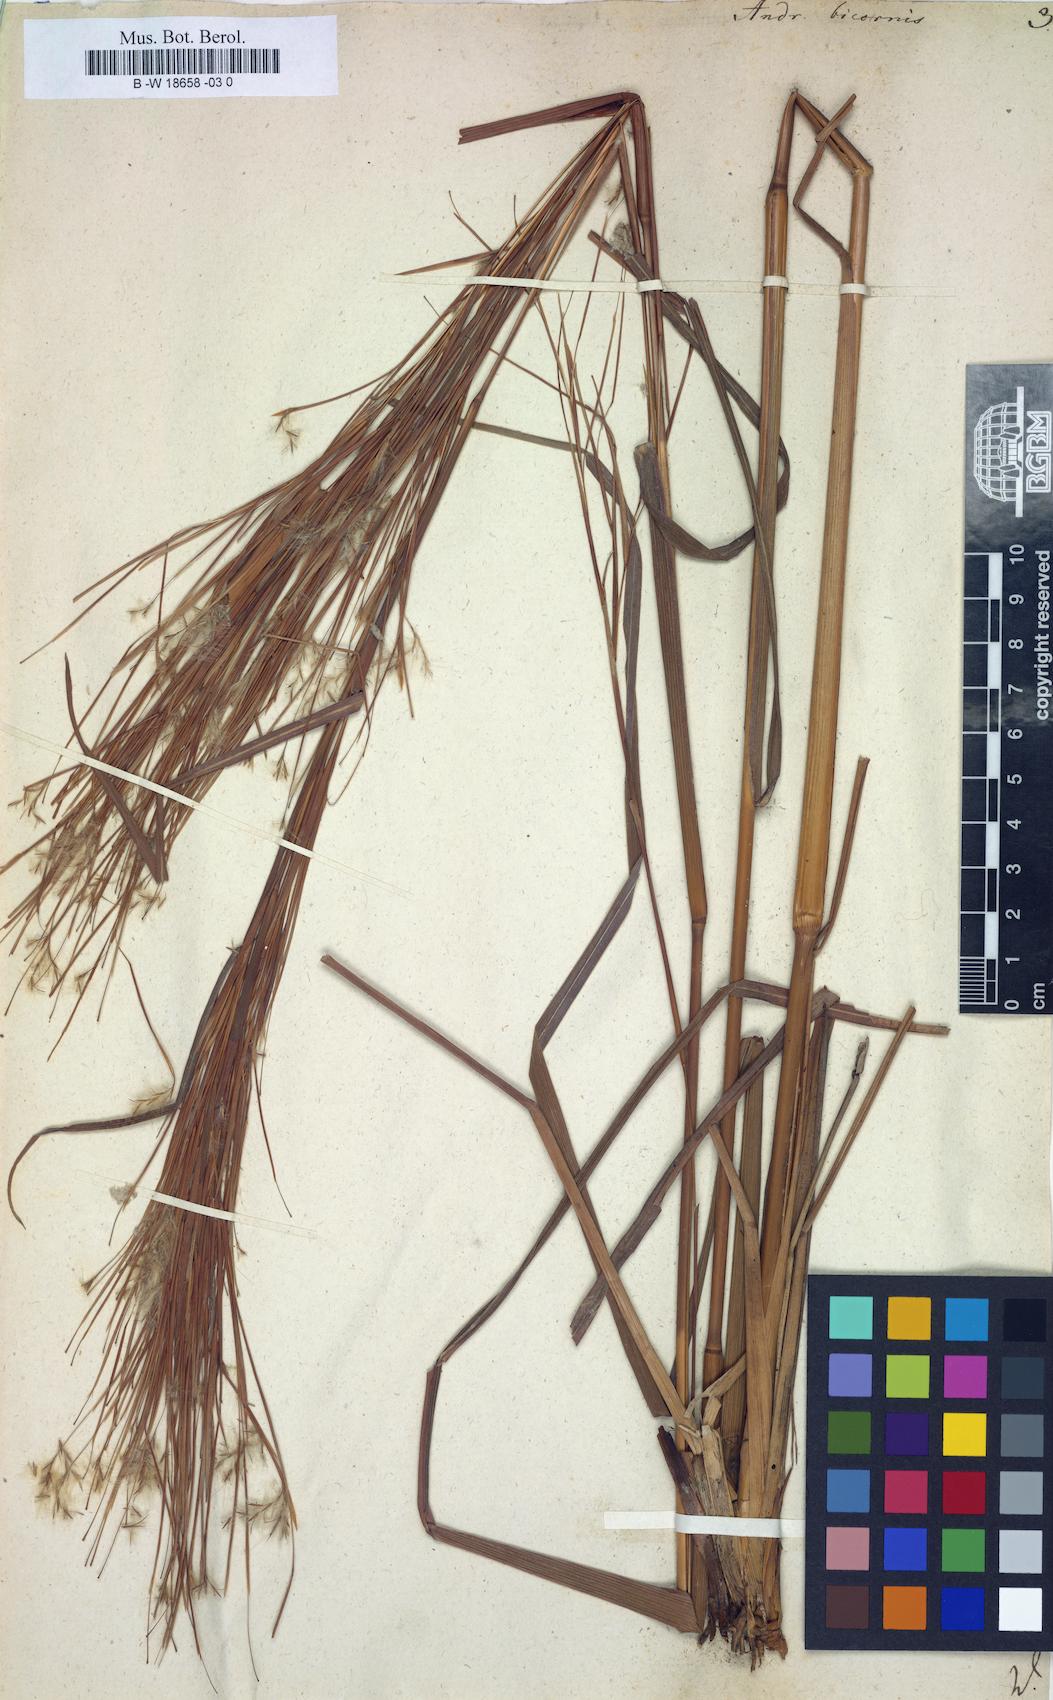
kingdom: Plantae
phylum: Tracheophyta
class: Liliopsida
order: Poales
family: Poaceae
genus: Andropogon
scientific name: Andropogon bicornis
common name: West indian foxtail grass
